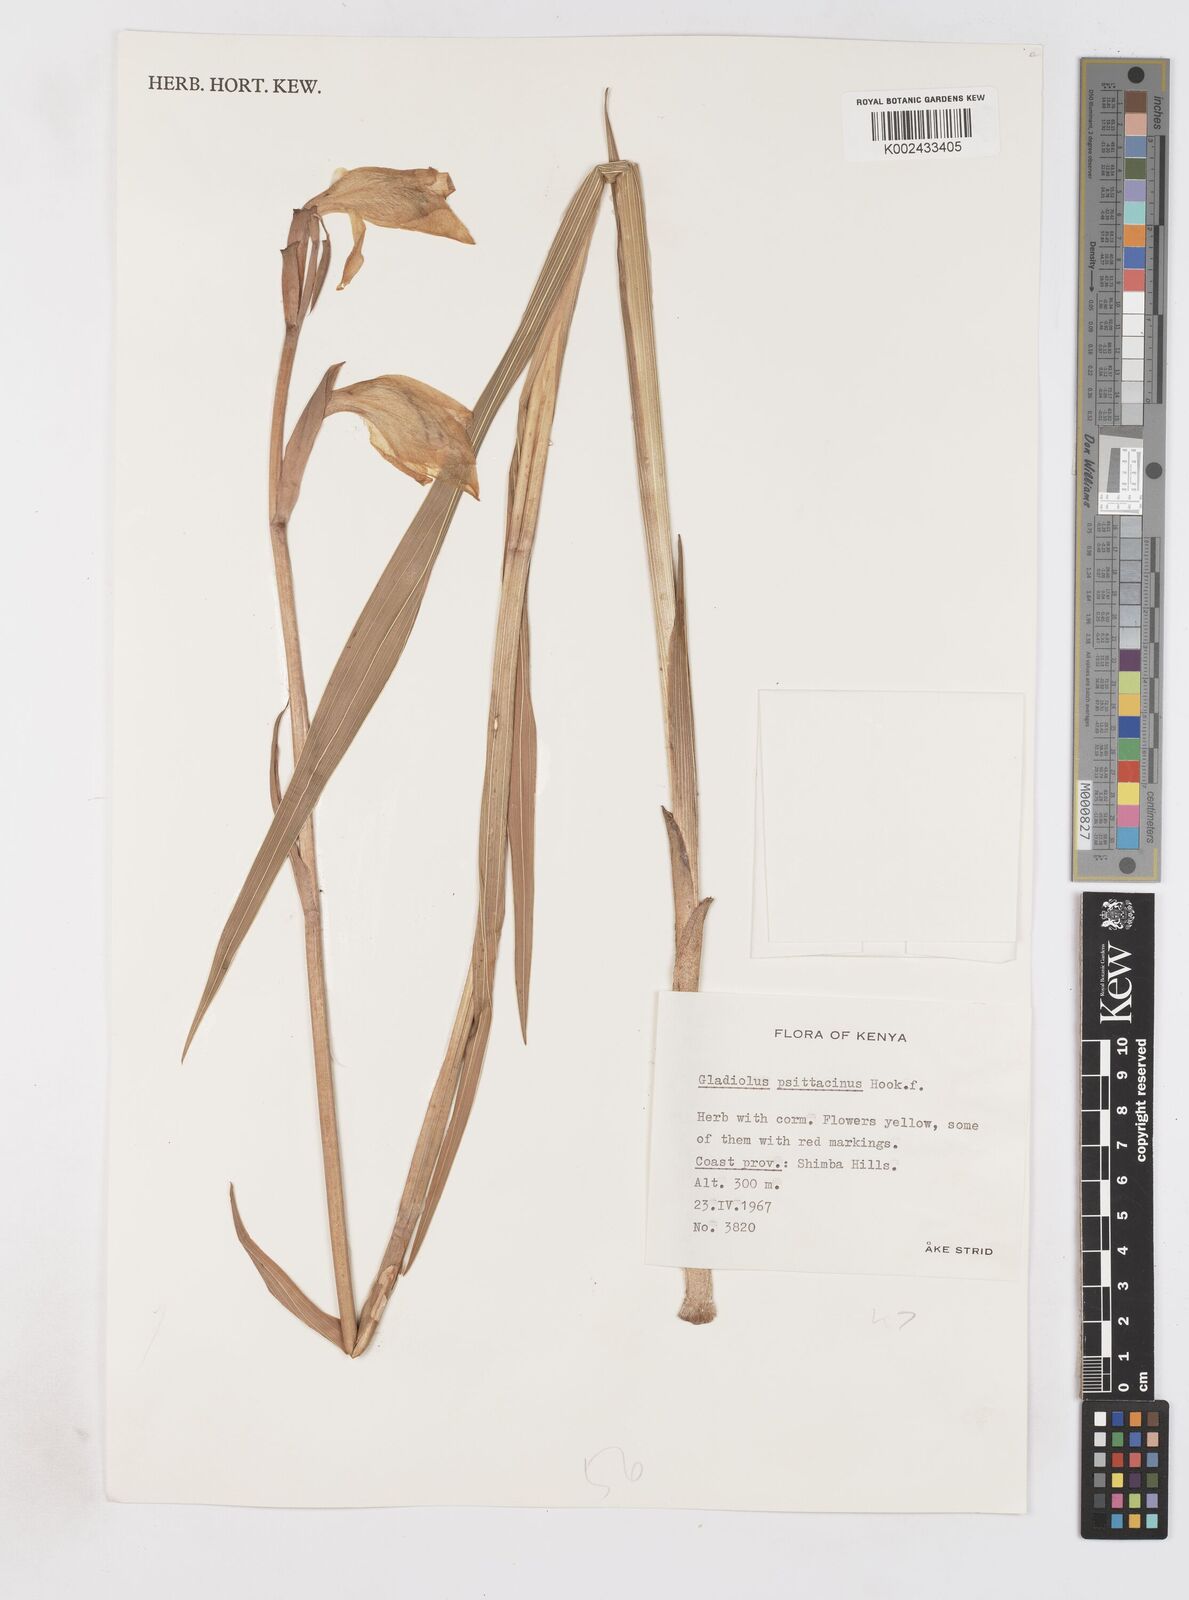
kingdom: Plantae
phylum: Tracheophyta
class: Liliopsida
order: Asparagales
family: Iridaceae
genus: Gladiolus
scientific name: Gladiolus dalenii
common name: Cornflag
